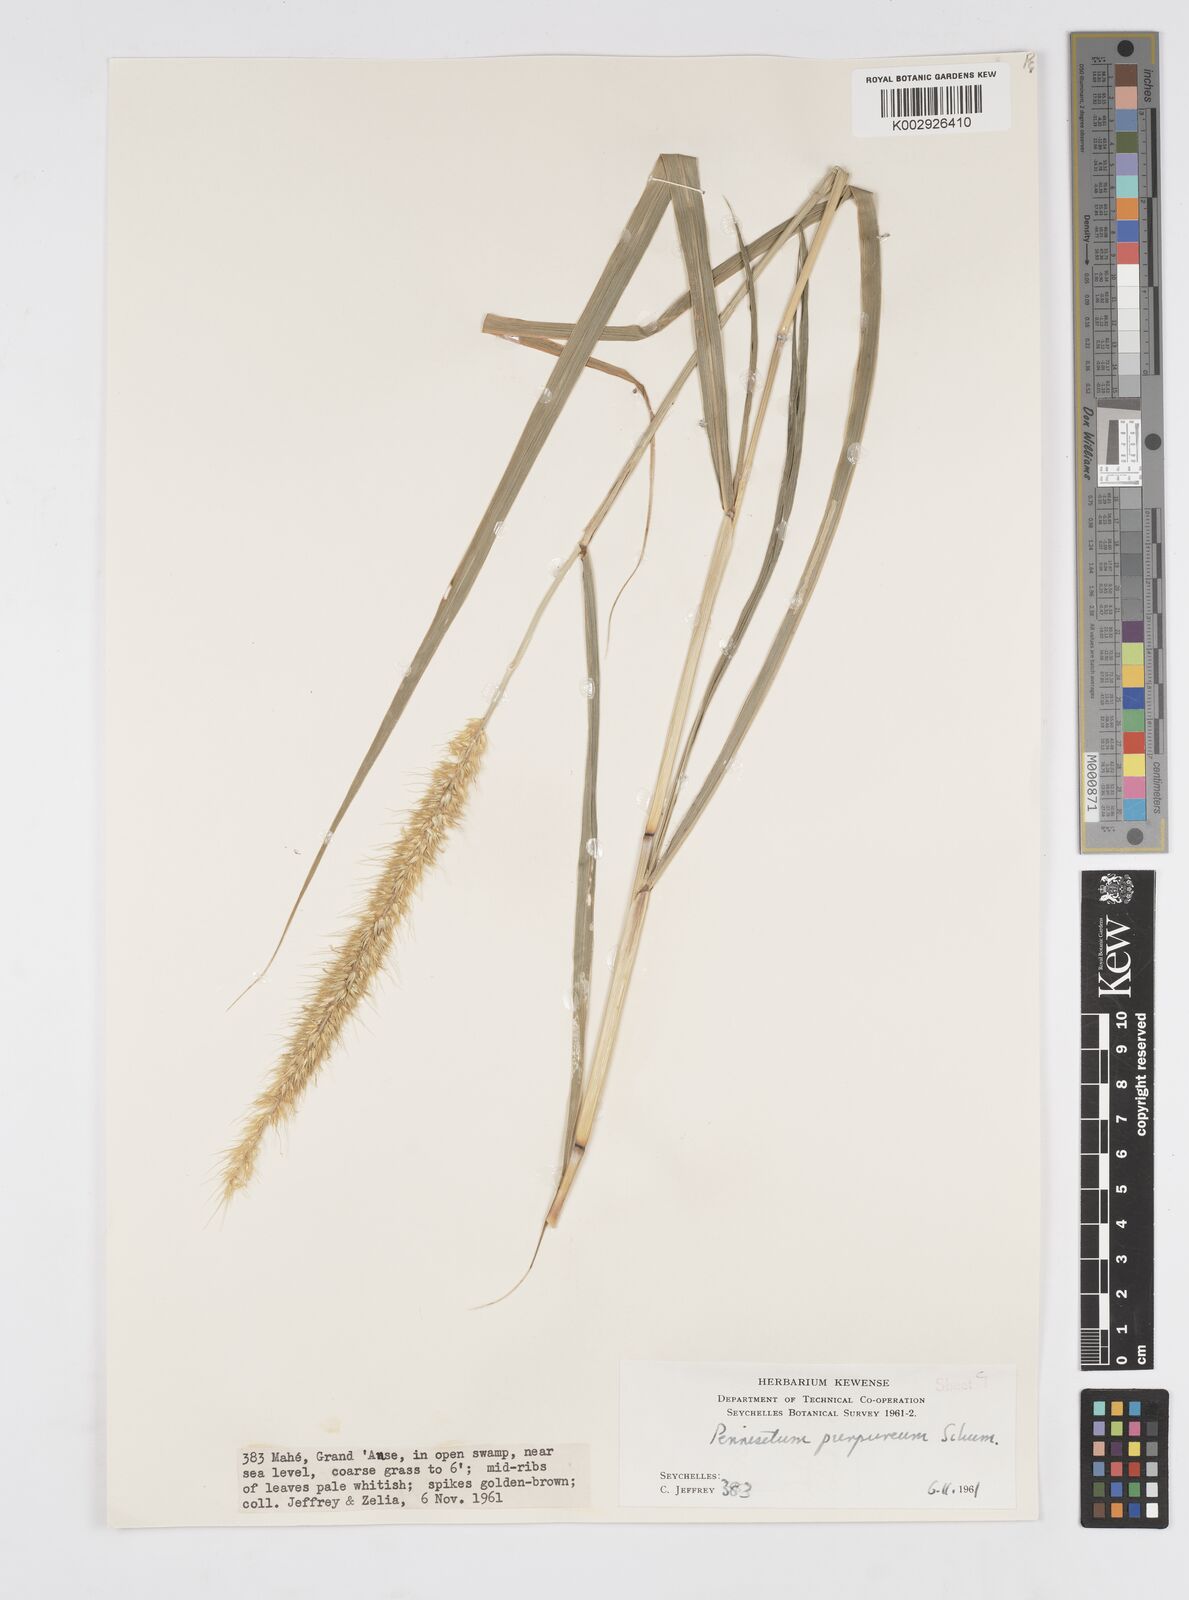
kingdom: Plantae
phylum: Tracheophyta
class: Liliopsida
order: Poales
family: Poaceae
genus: Cenchrus
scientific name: Cenchrus purpureus
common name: Elephant grass
